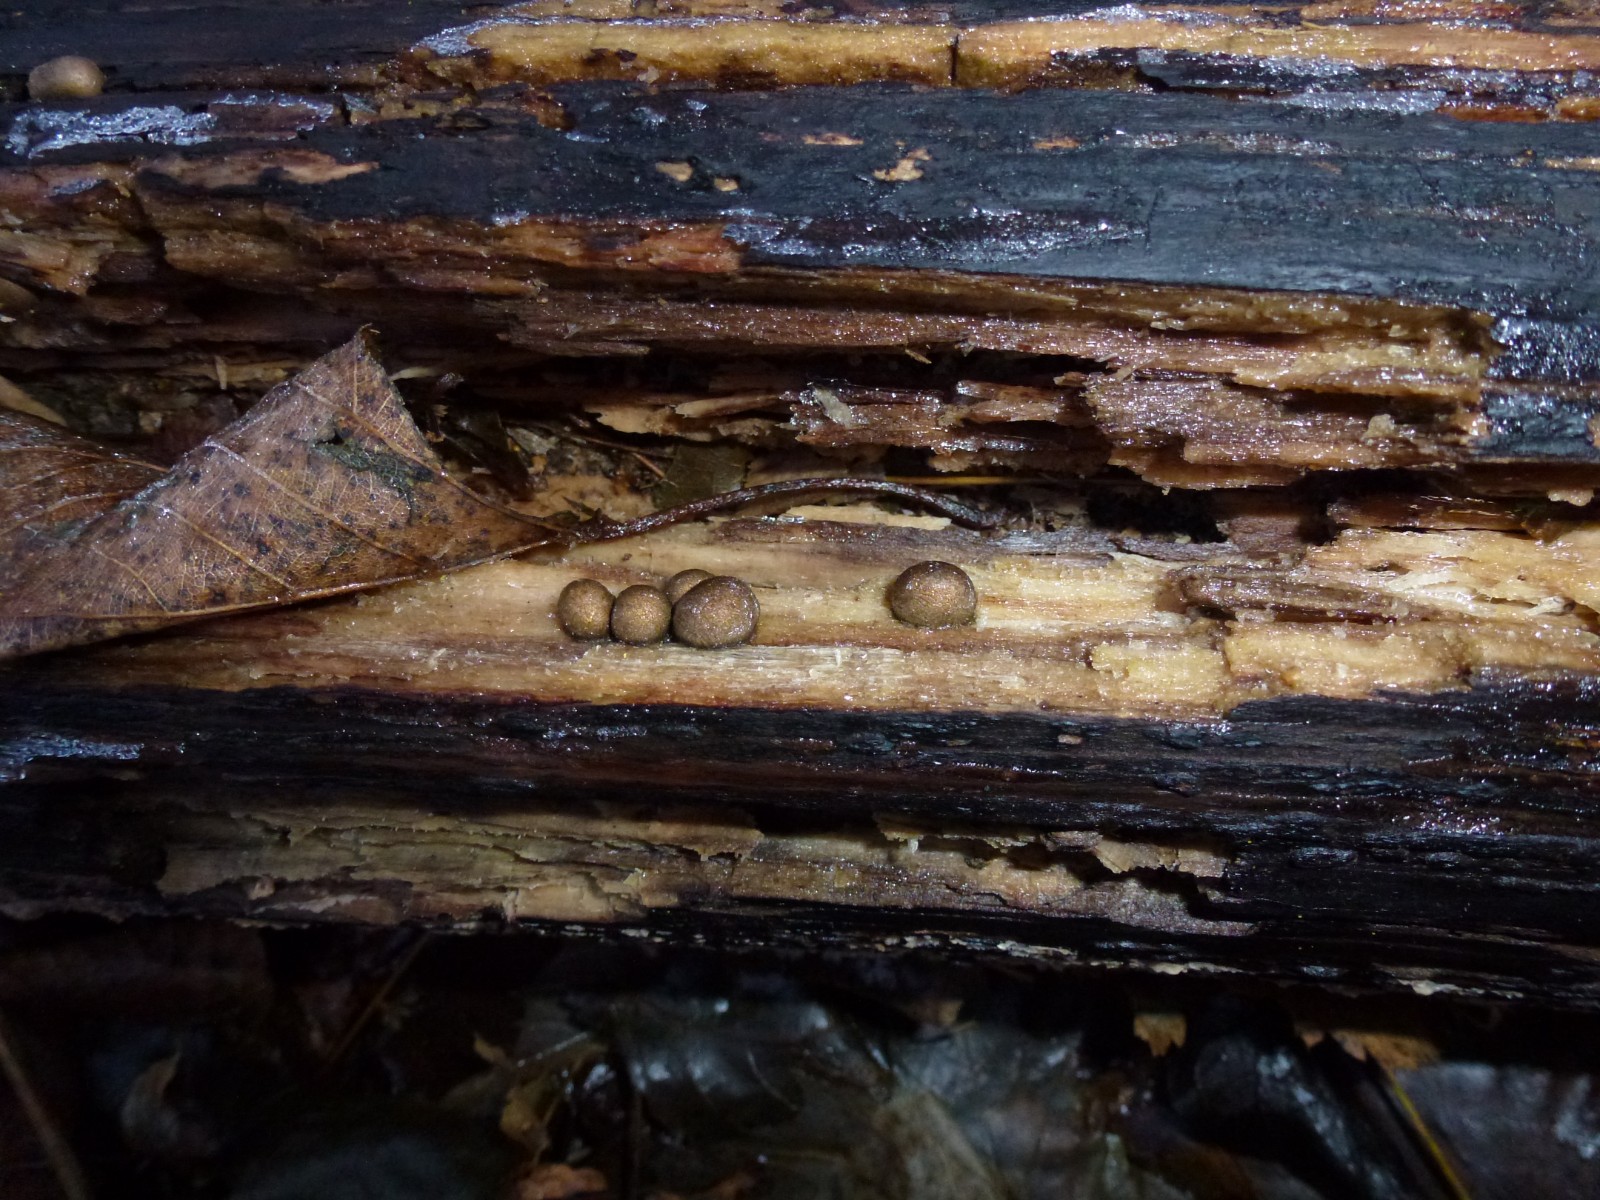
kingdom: Protozoa
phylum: Mycetozoa
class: Myxomycetes
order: Cribrariales
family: Tubiferaceae
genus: Lycogala
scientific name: Lycogala epidendrum
